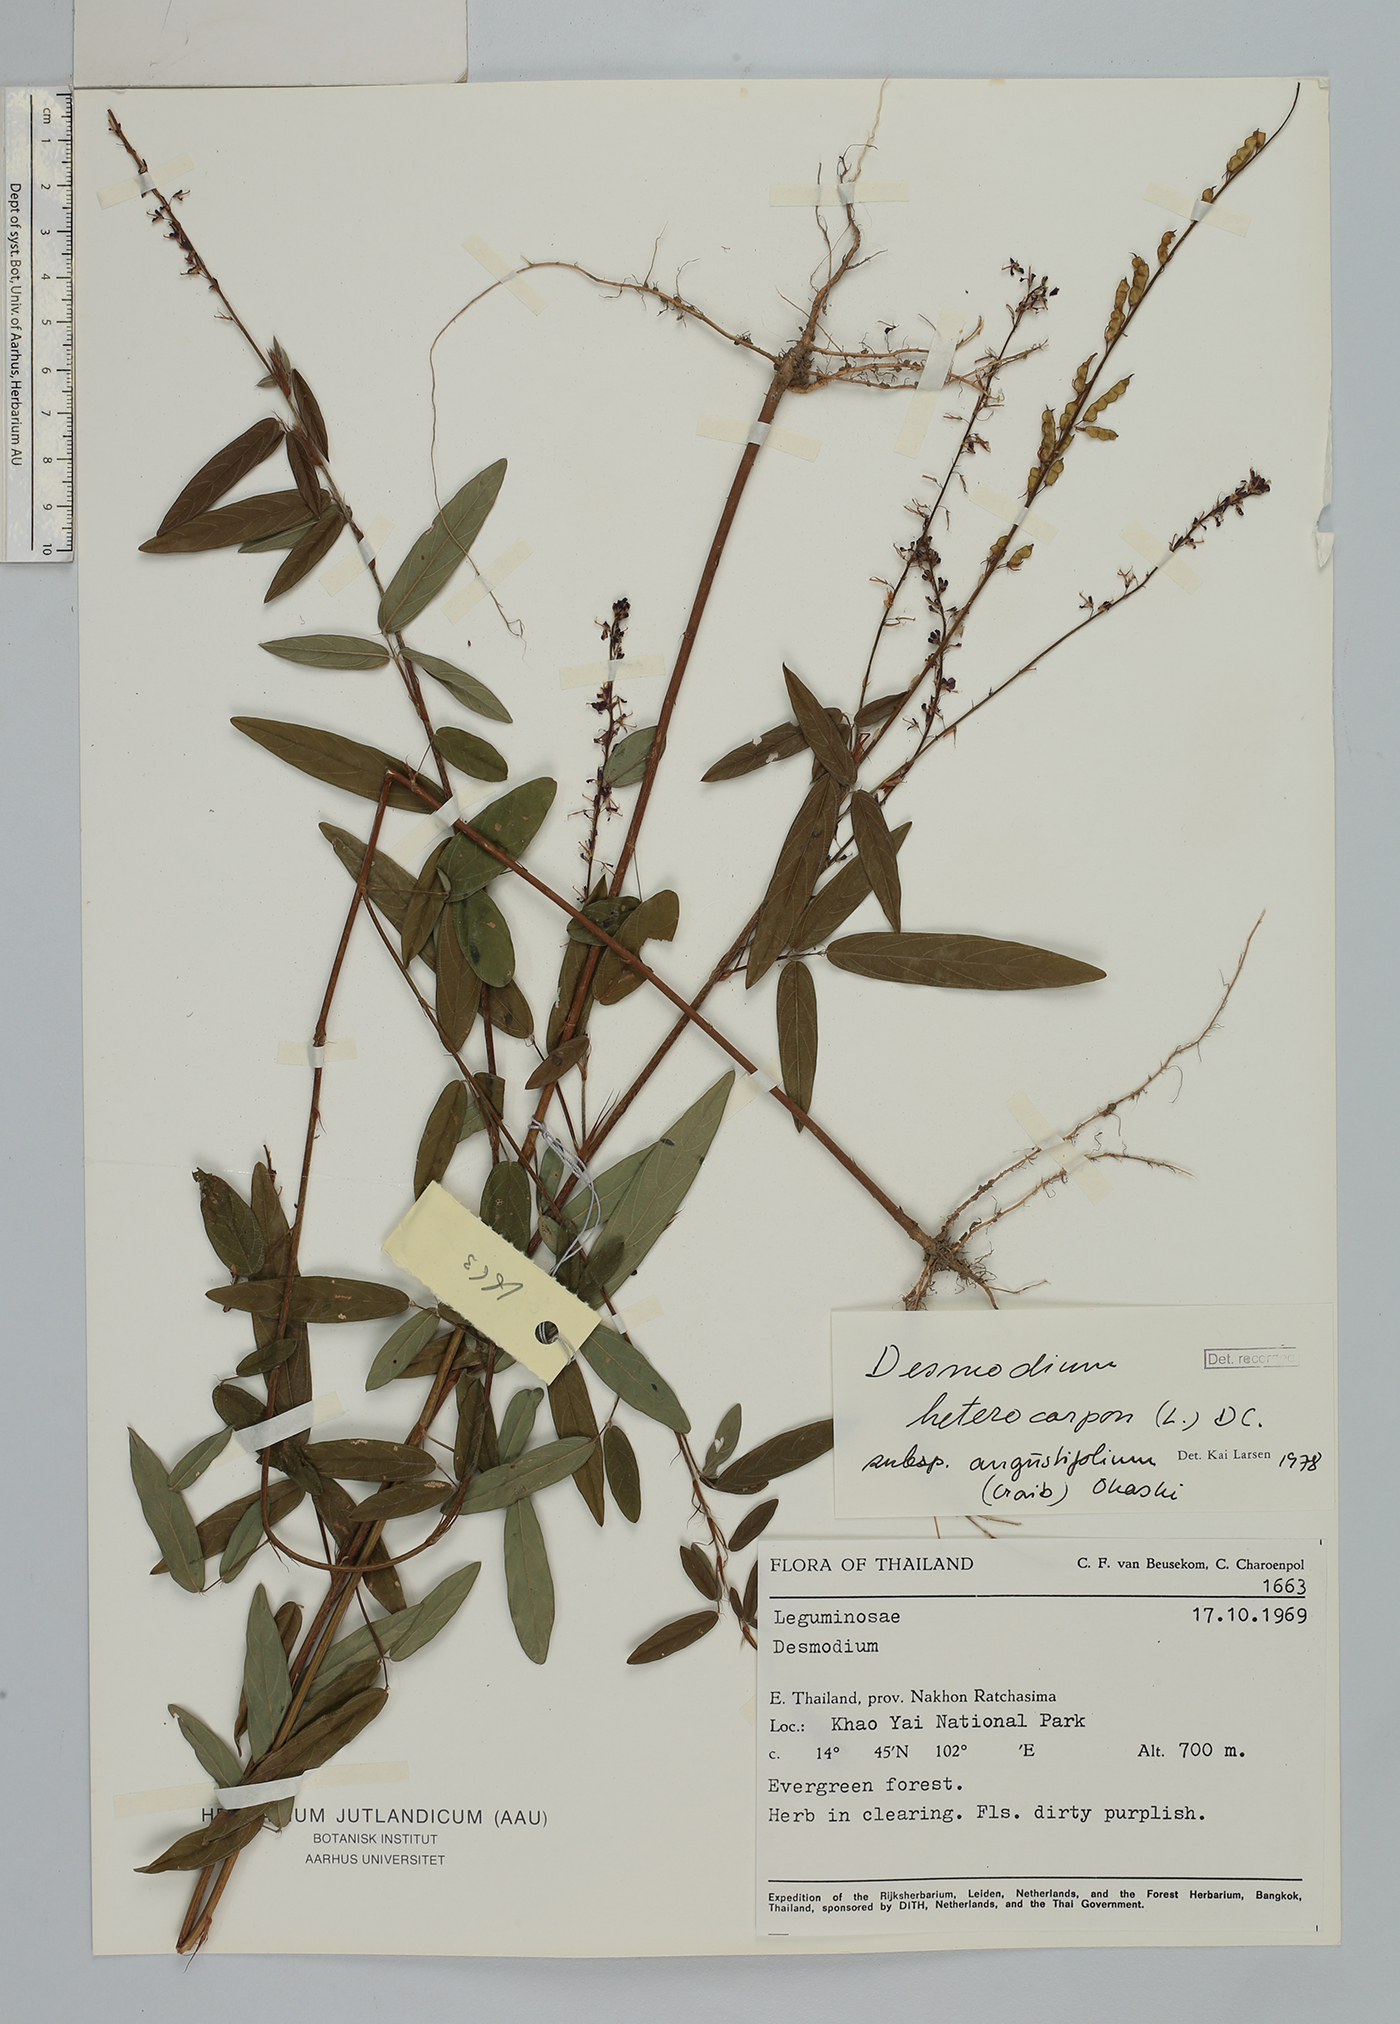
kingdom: Plantae
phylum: Tracheophyta
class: Magnoliopsida
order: Fabales
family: Fabaceae
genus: Grona
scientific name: Grona heterocarpos
